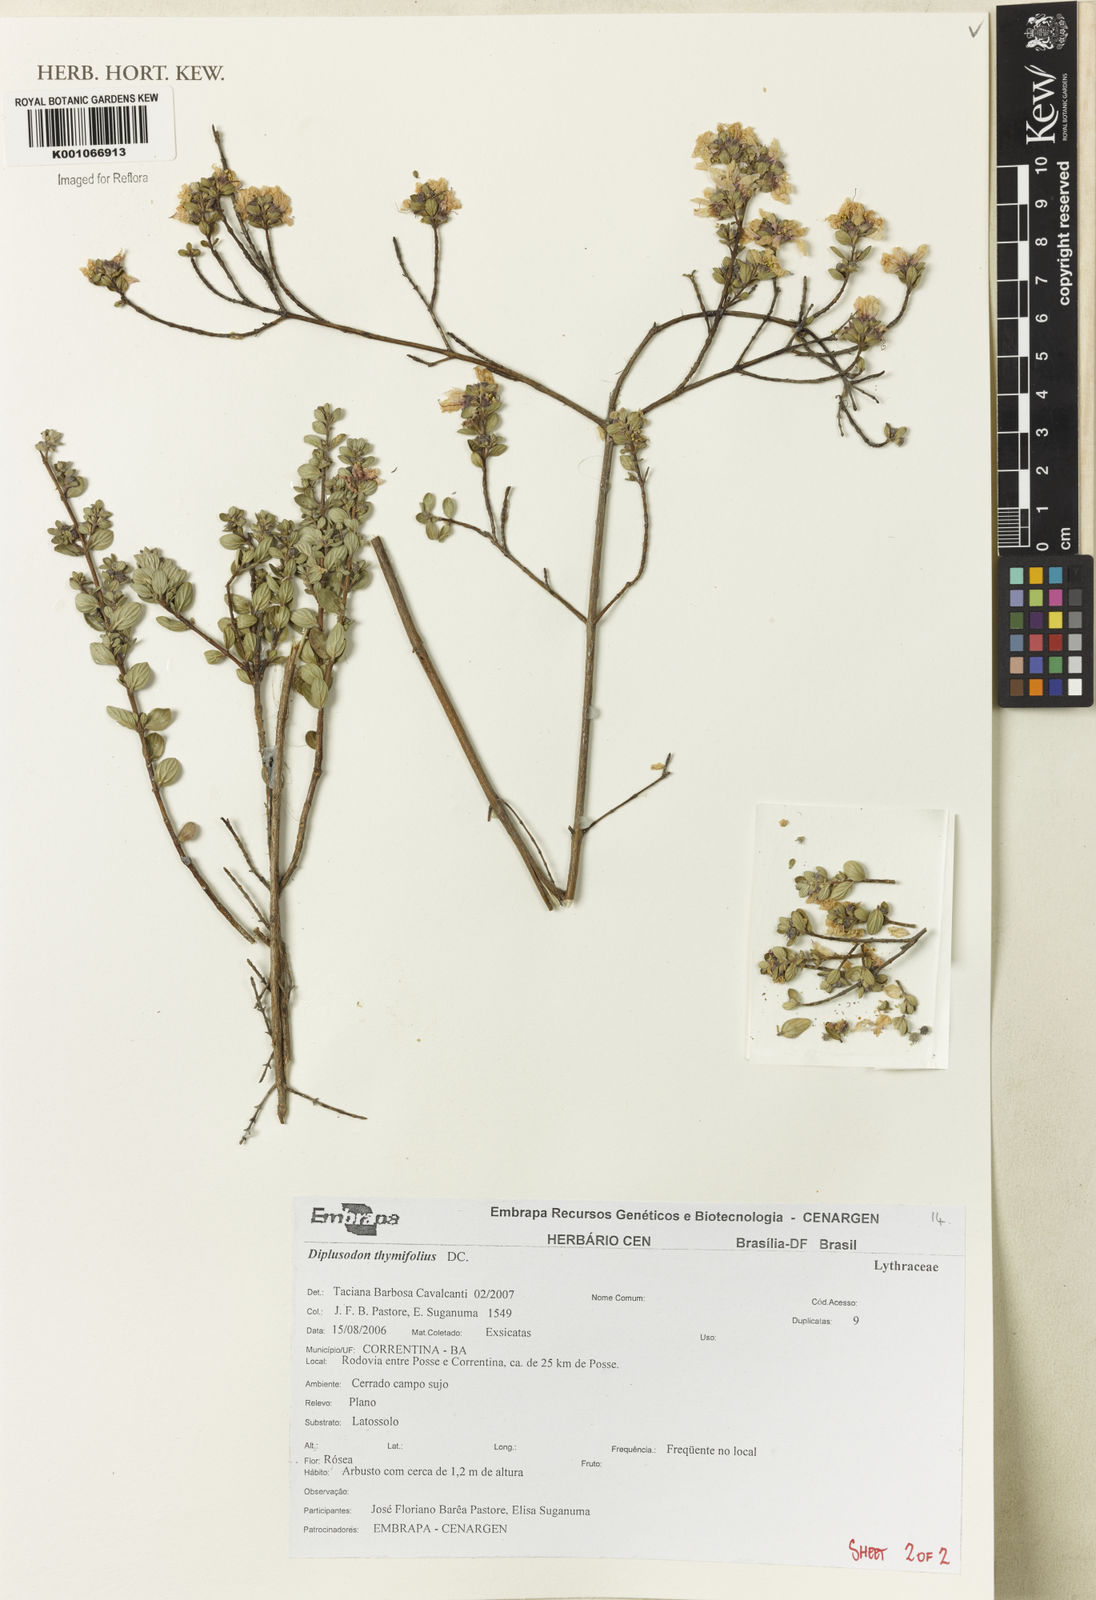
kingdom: Plantae
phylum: Tracheophyta
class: Magnoliopsida
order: Myrtales
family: Lythraceae
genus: Diplusodon
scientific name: Diplusodon thymifolius
